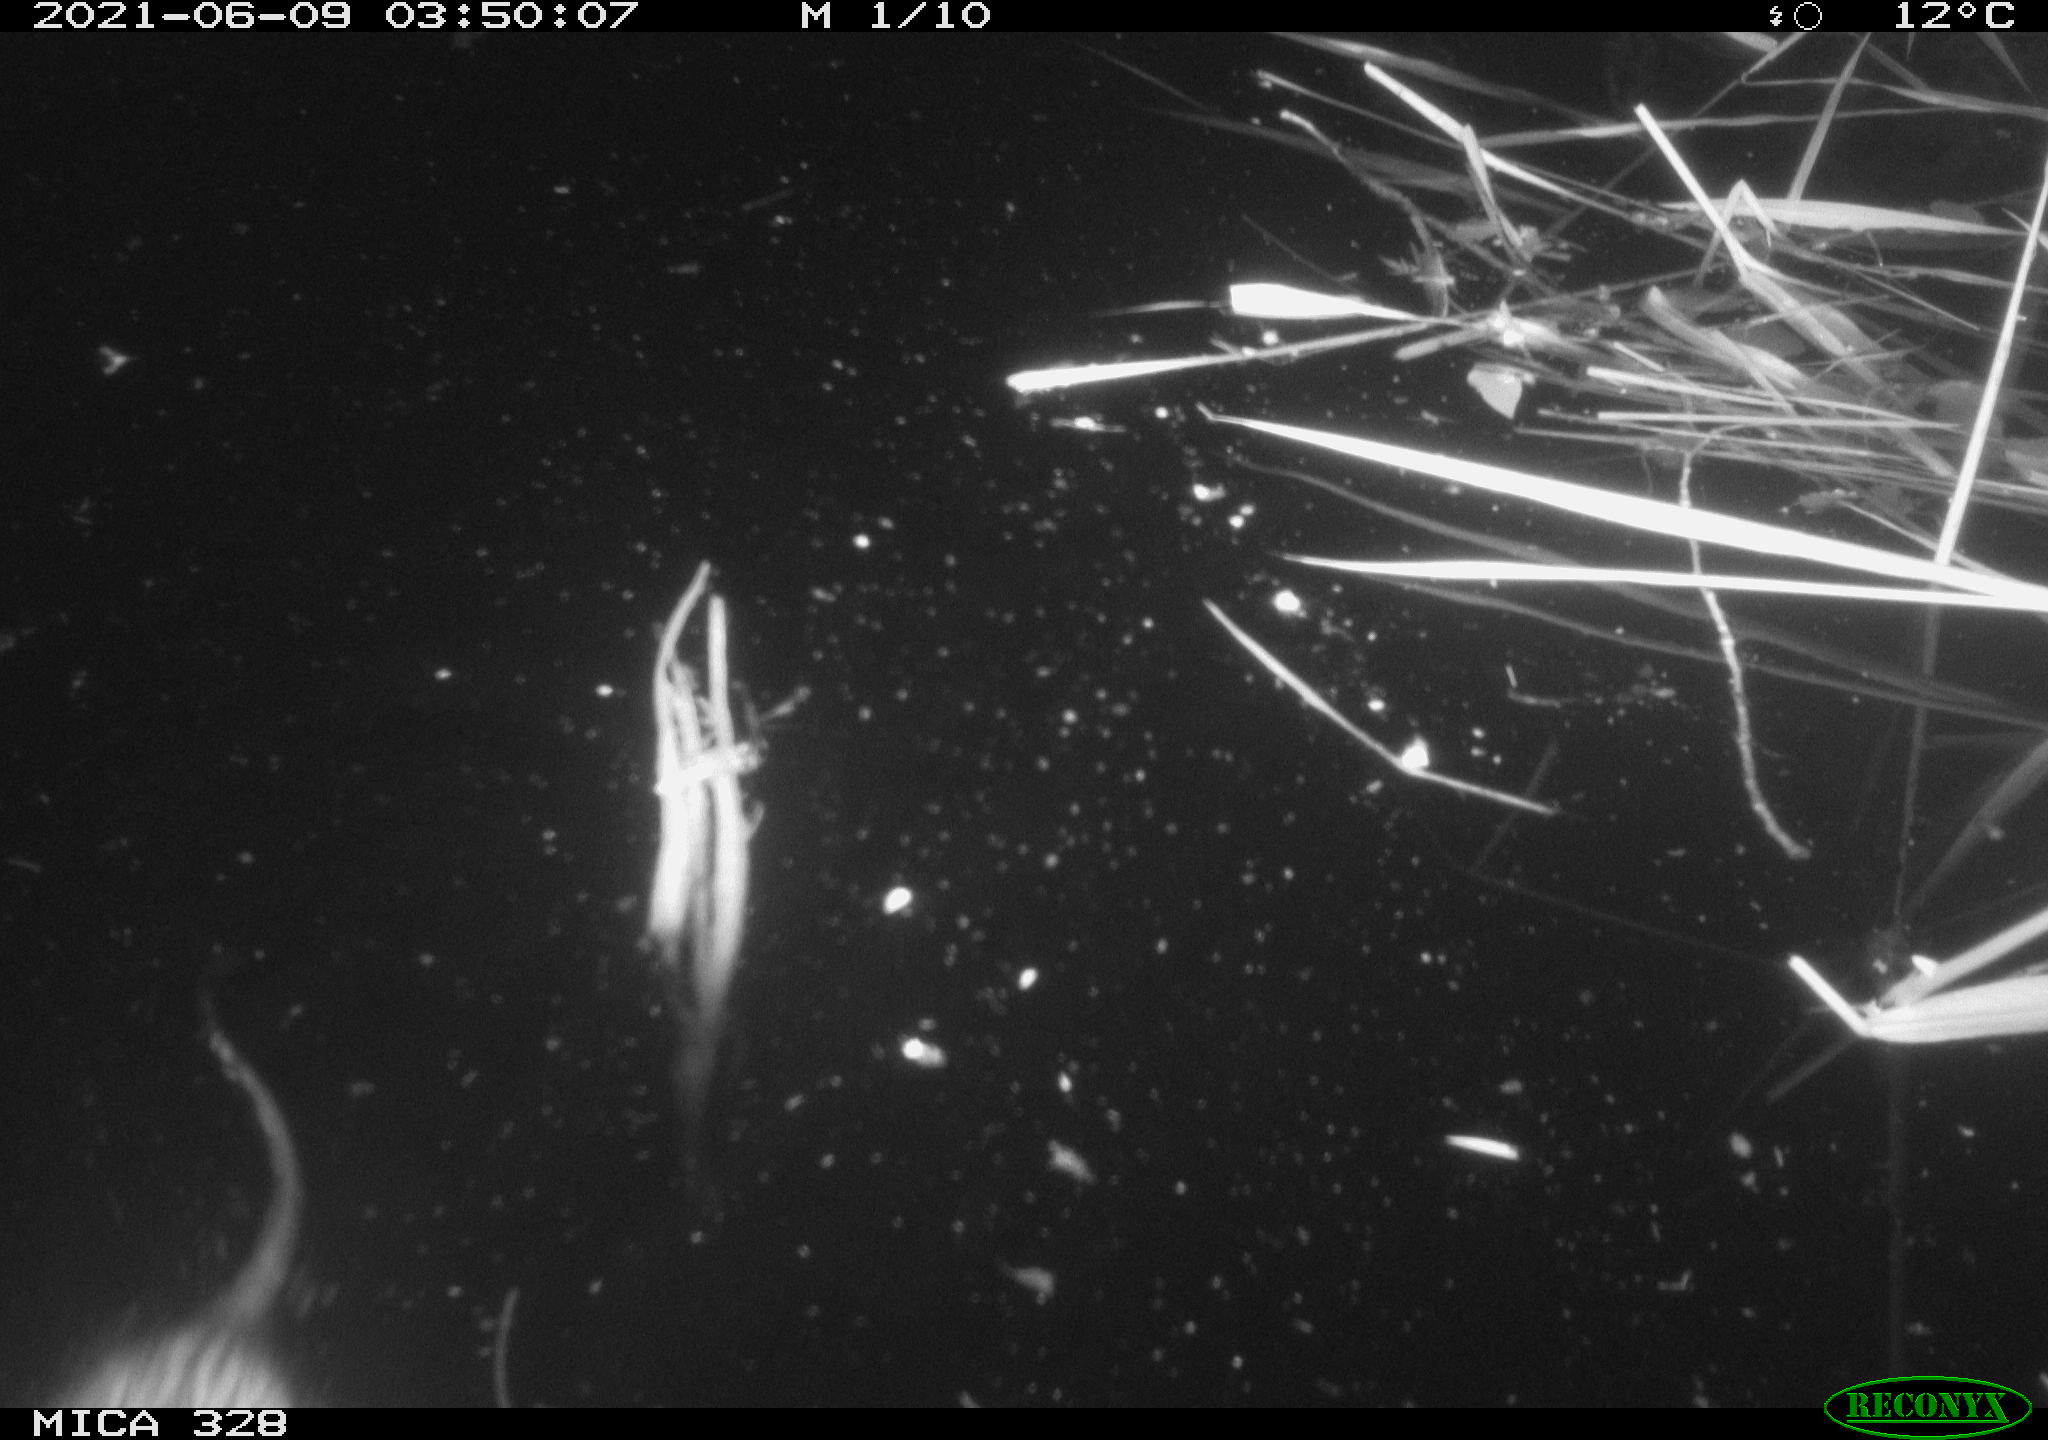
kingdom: Animalia
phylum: Chordata
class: Mammalia
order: Rodentia
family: Cricetidae
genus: Ondatra
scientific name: Ondatra zibethicus
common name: Muskrat
